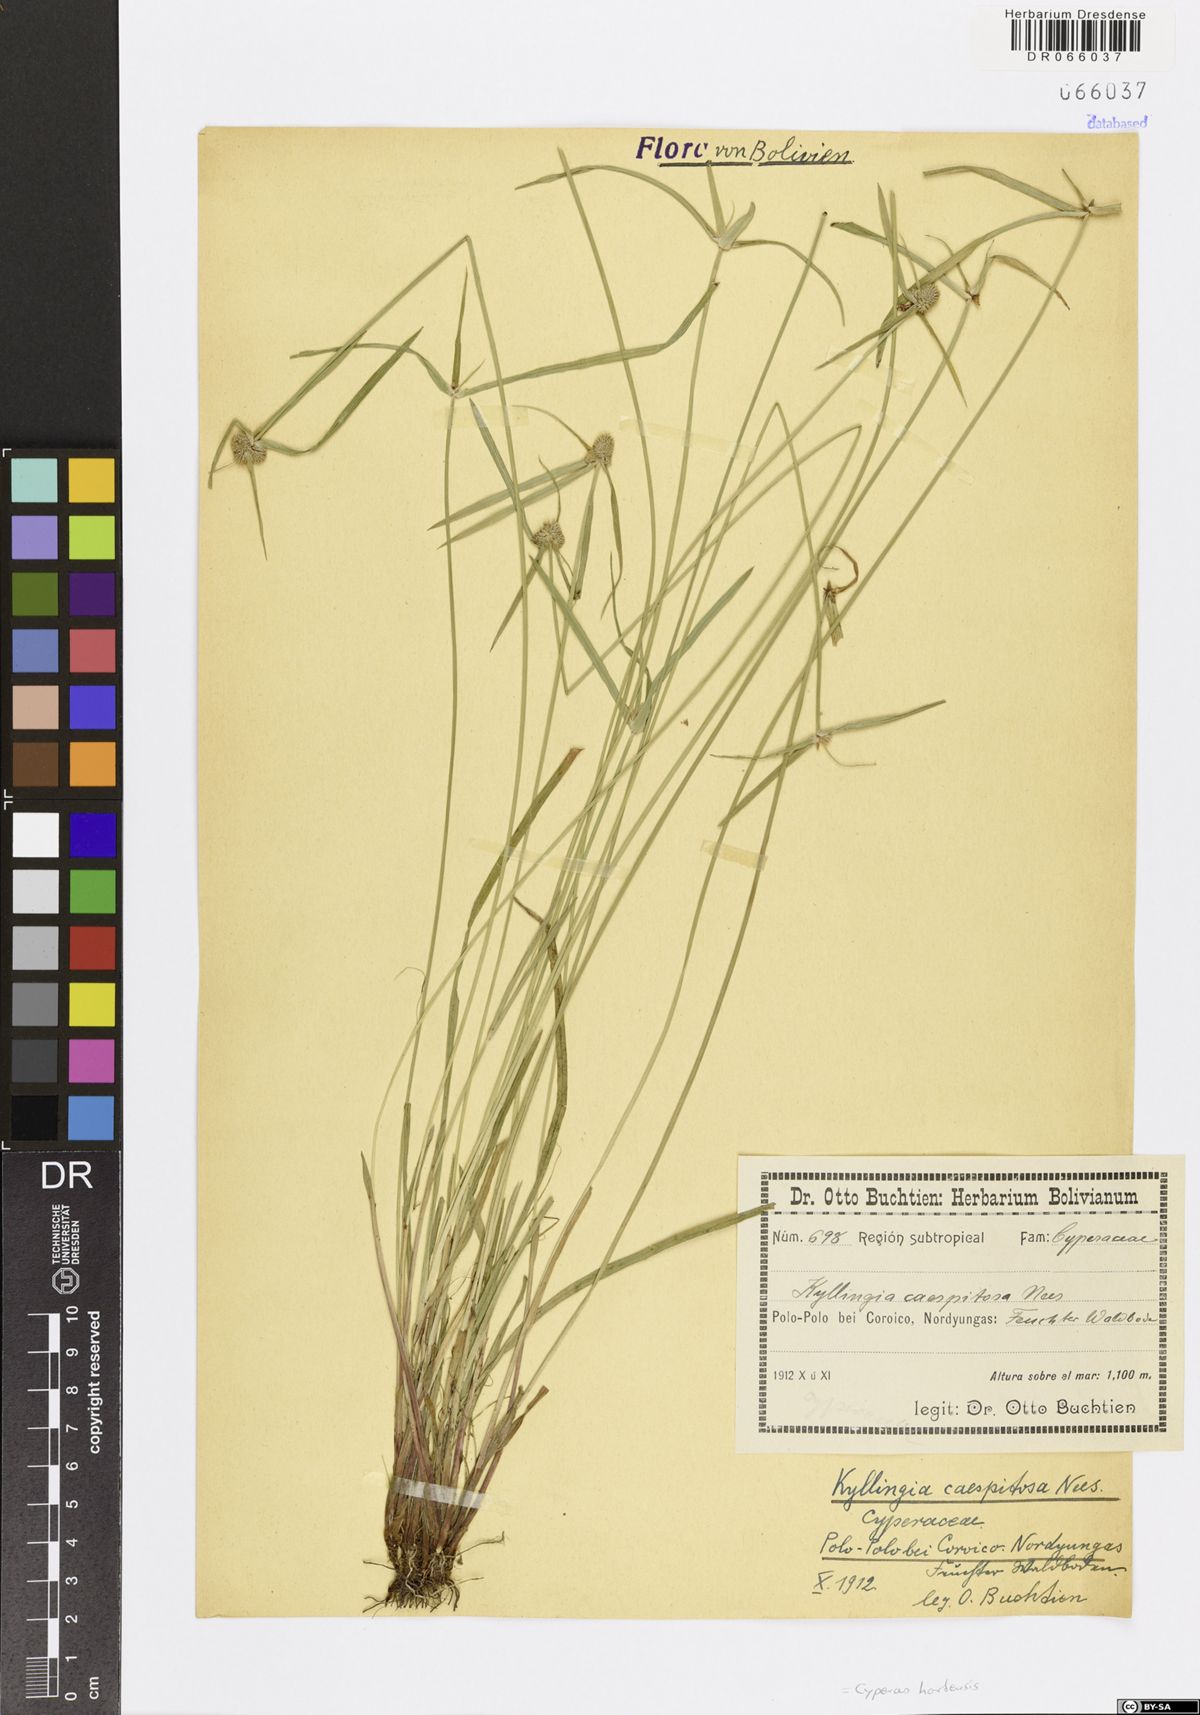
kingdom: Plantae
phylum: Tracheophyta
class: Liliopsida
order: Poales
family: Cyperaceae
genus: Cyperus
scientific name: Cyperus hortensis
